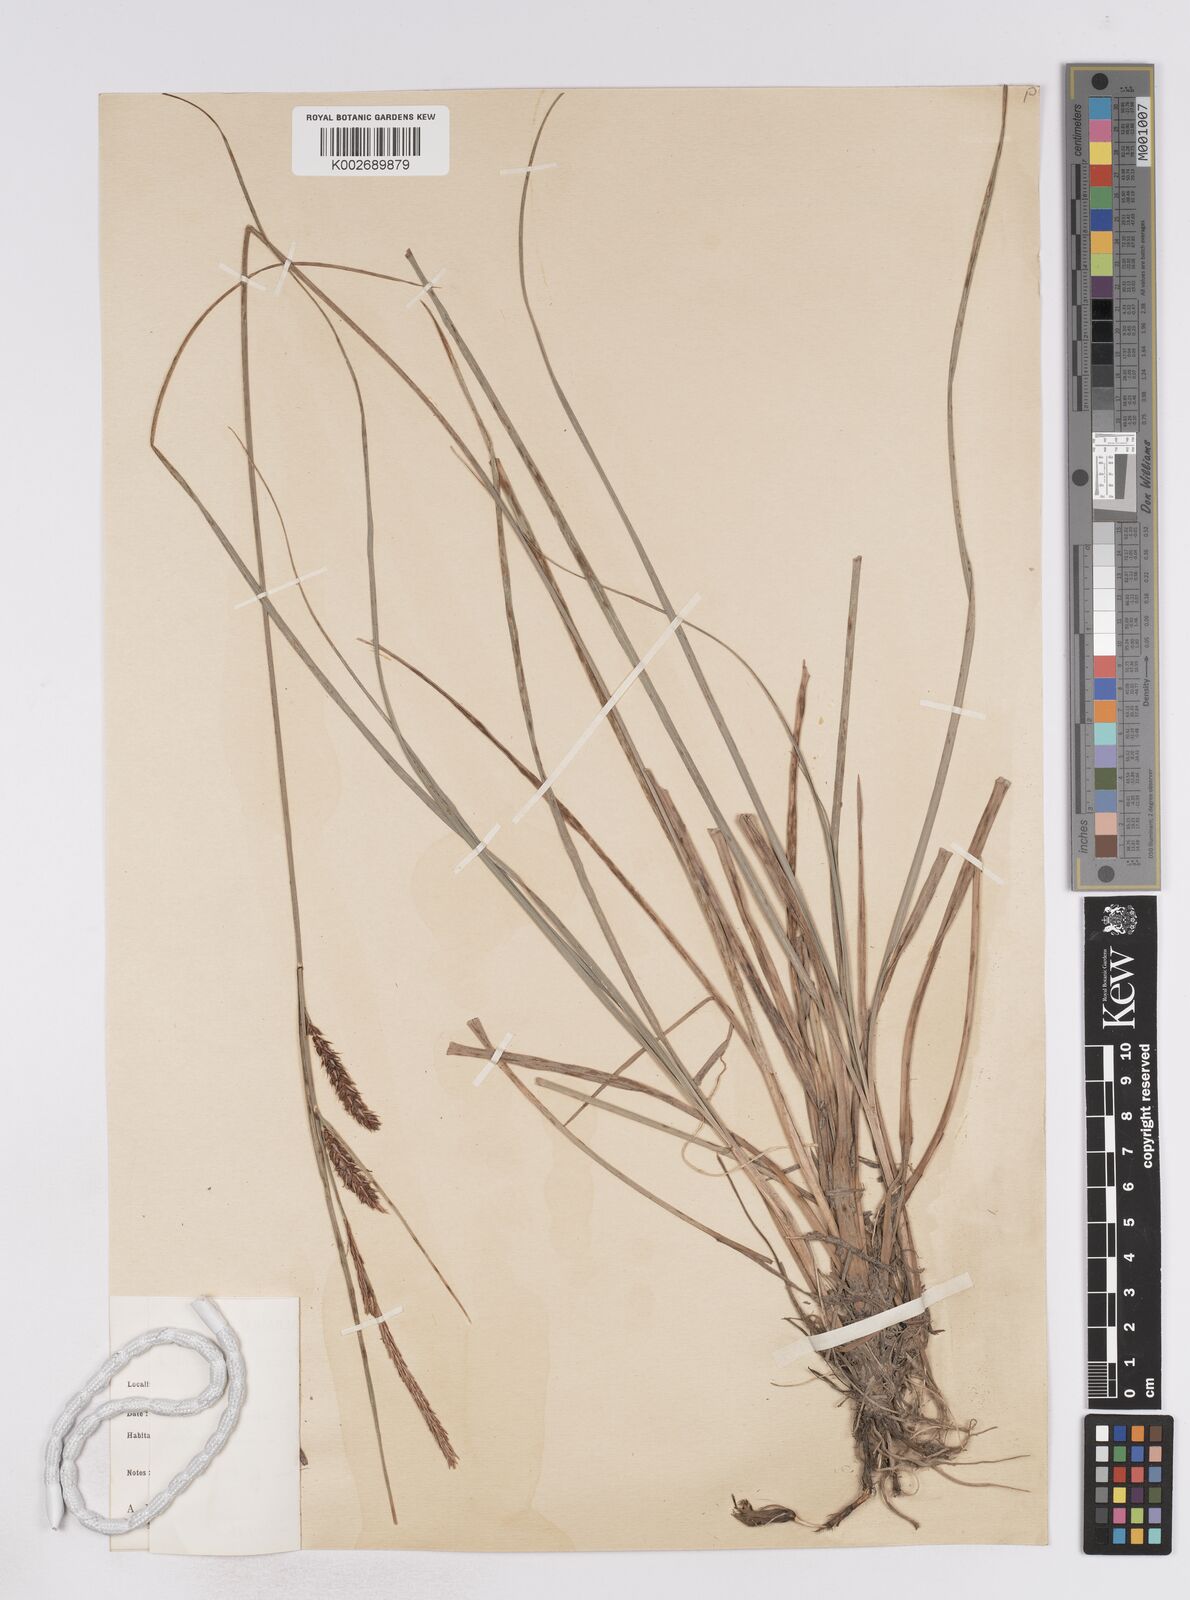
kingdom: Plantae
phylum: Tracheophyta
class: Liliopsida
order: Poales
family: Cyperaceae
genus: Carex
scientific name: Carex flacca
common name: Glaucous sedge
